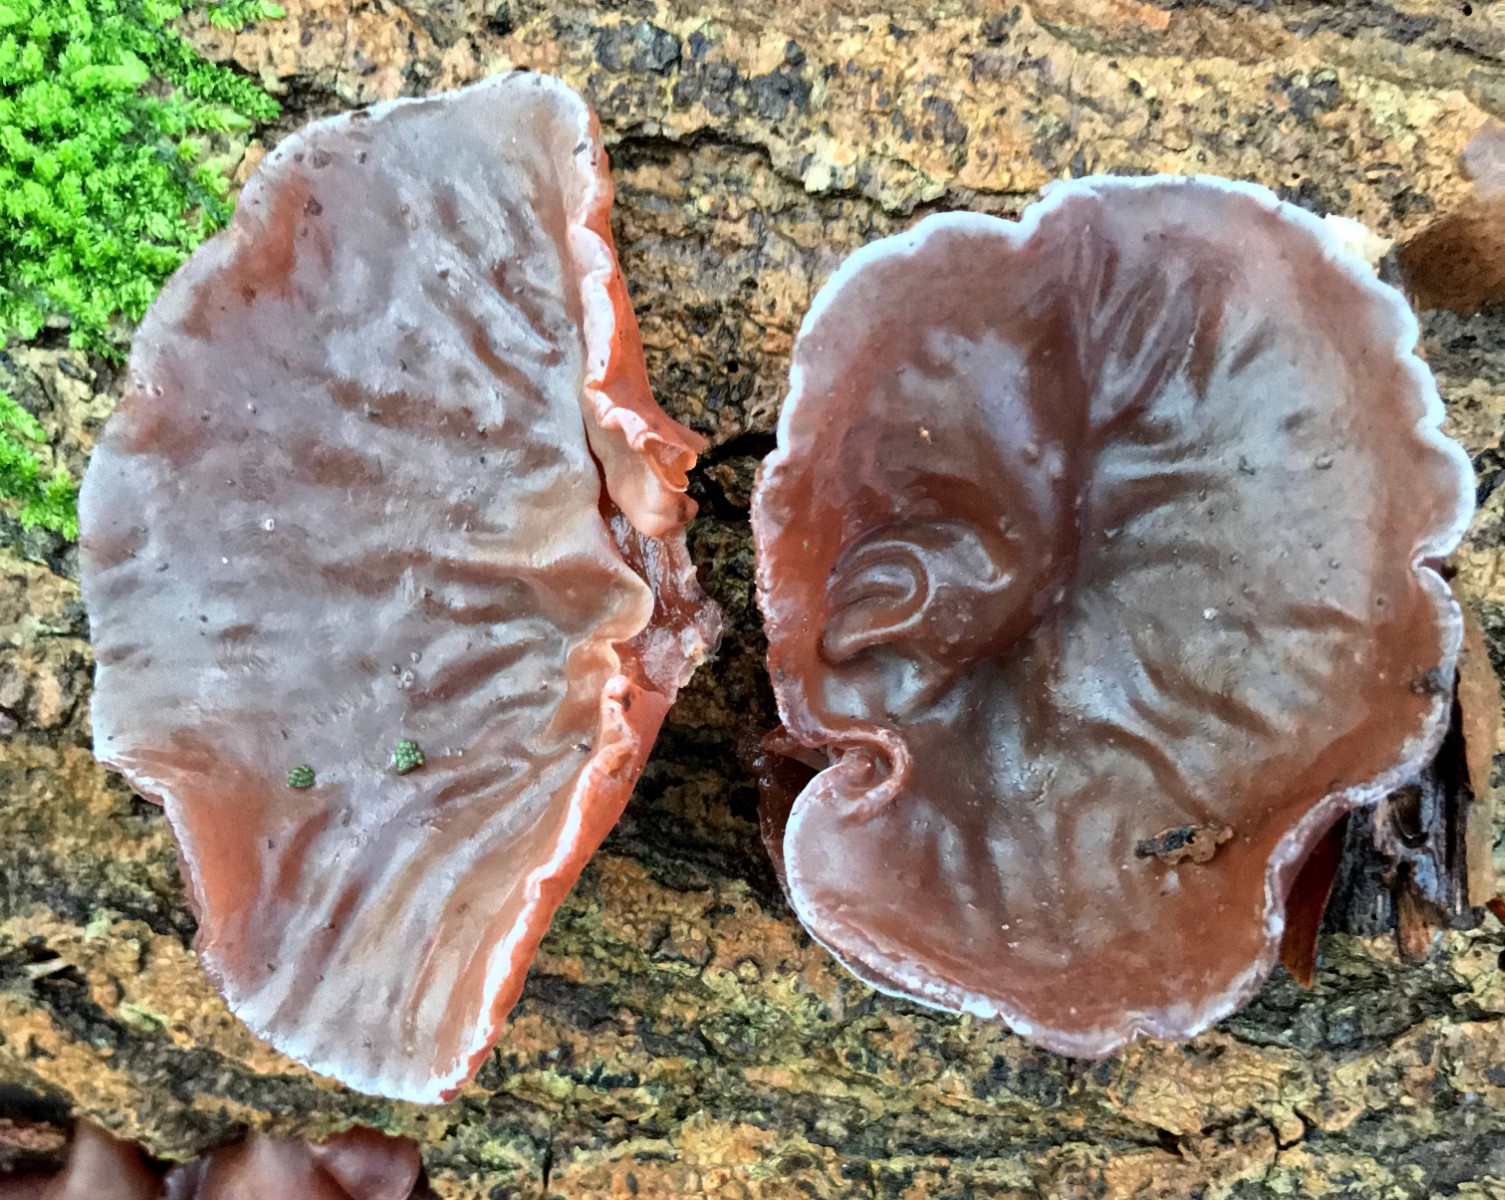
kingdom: Fungi
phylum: Basidiomycota
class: Agaricomycetes
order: Auriculariales
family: Auriculariaceae
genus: Auricularia
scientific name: Auricularia auricula-judae
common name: almindelig judasøre
